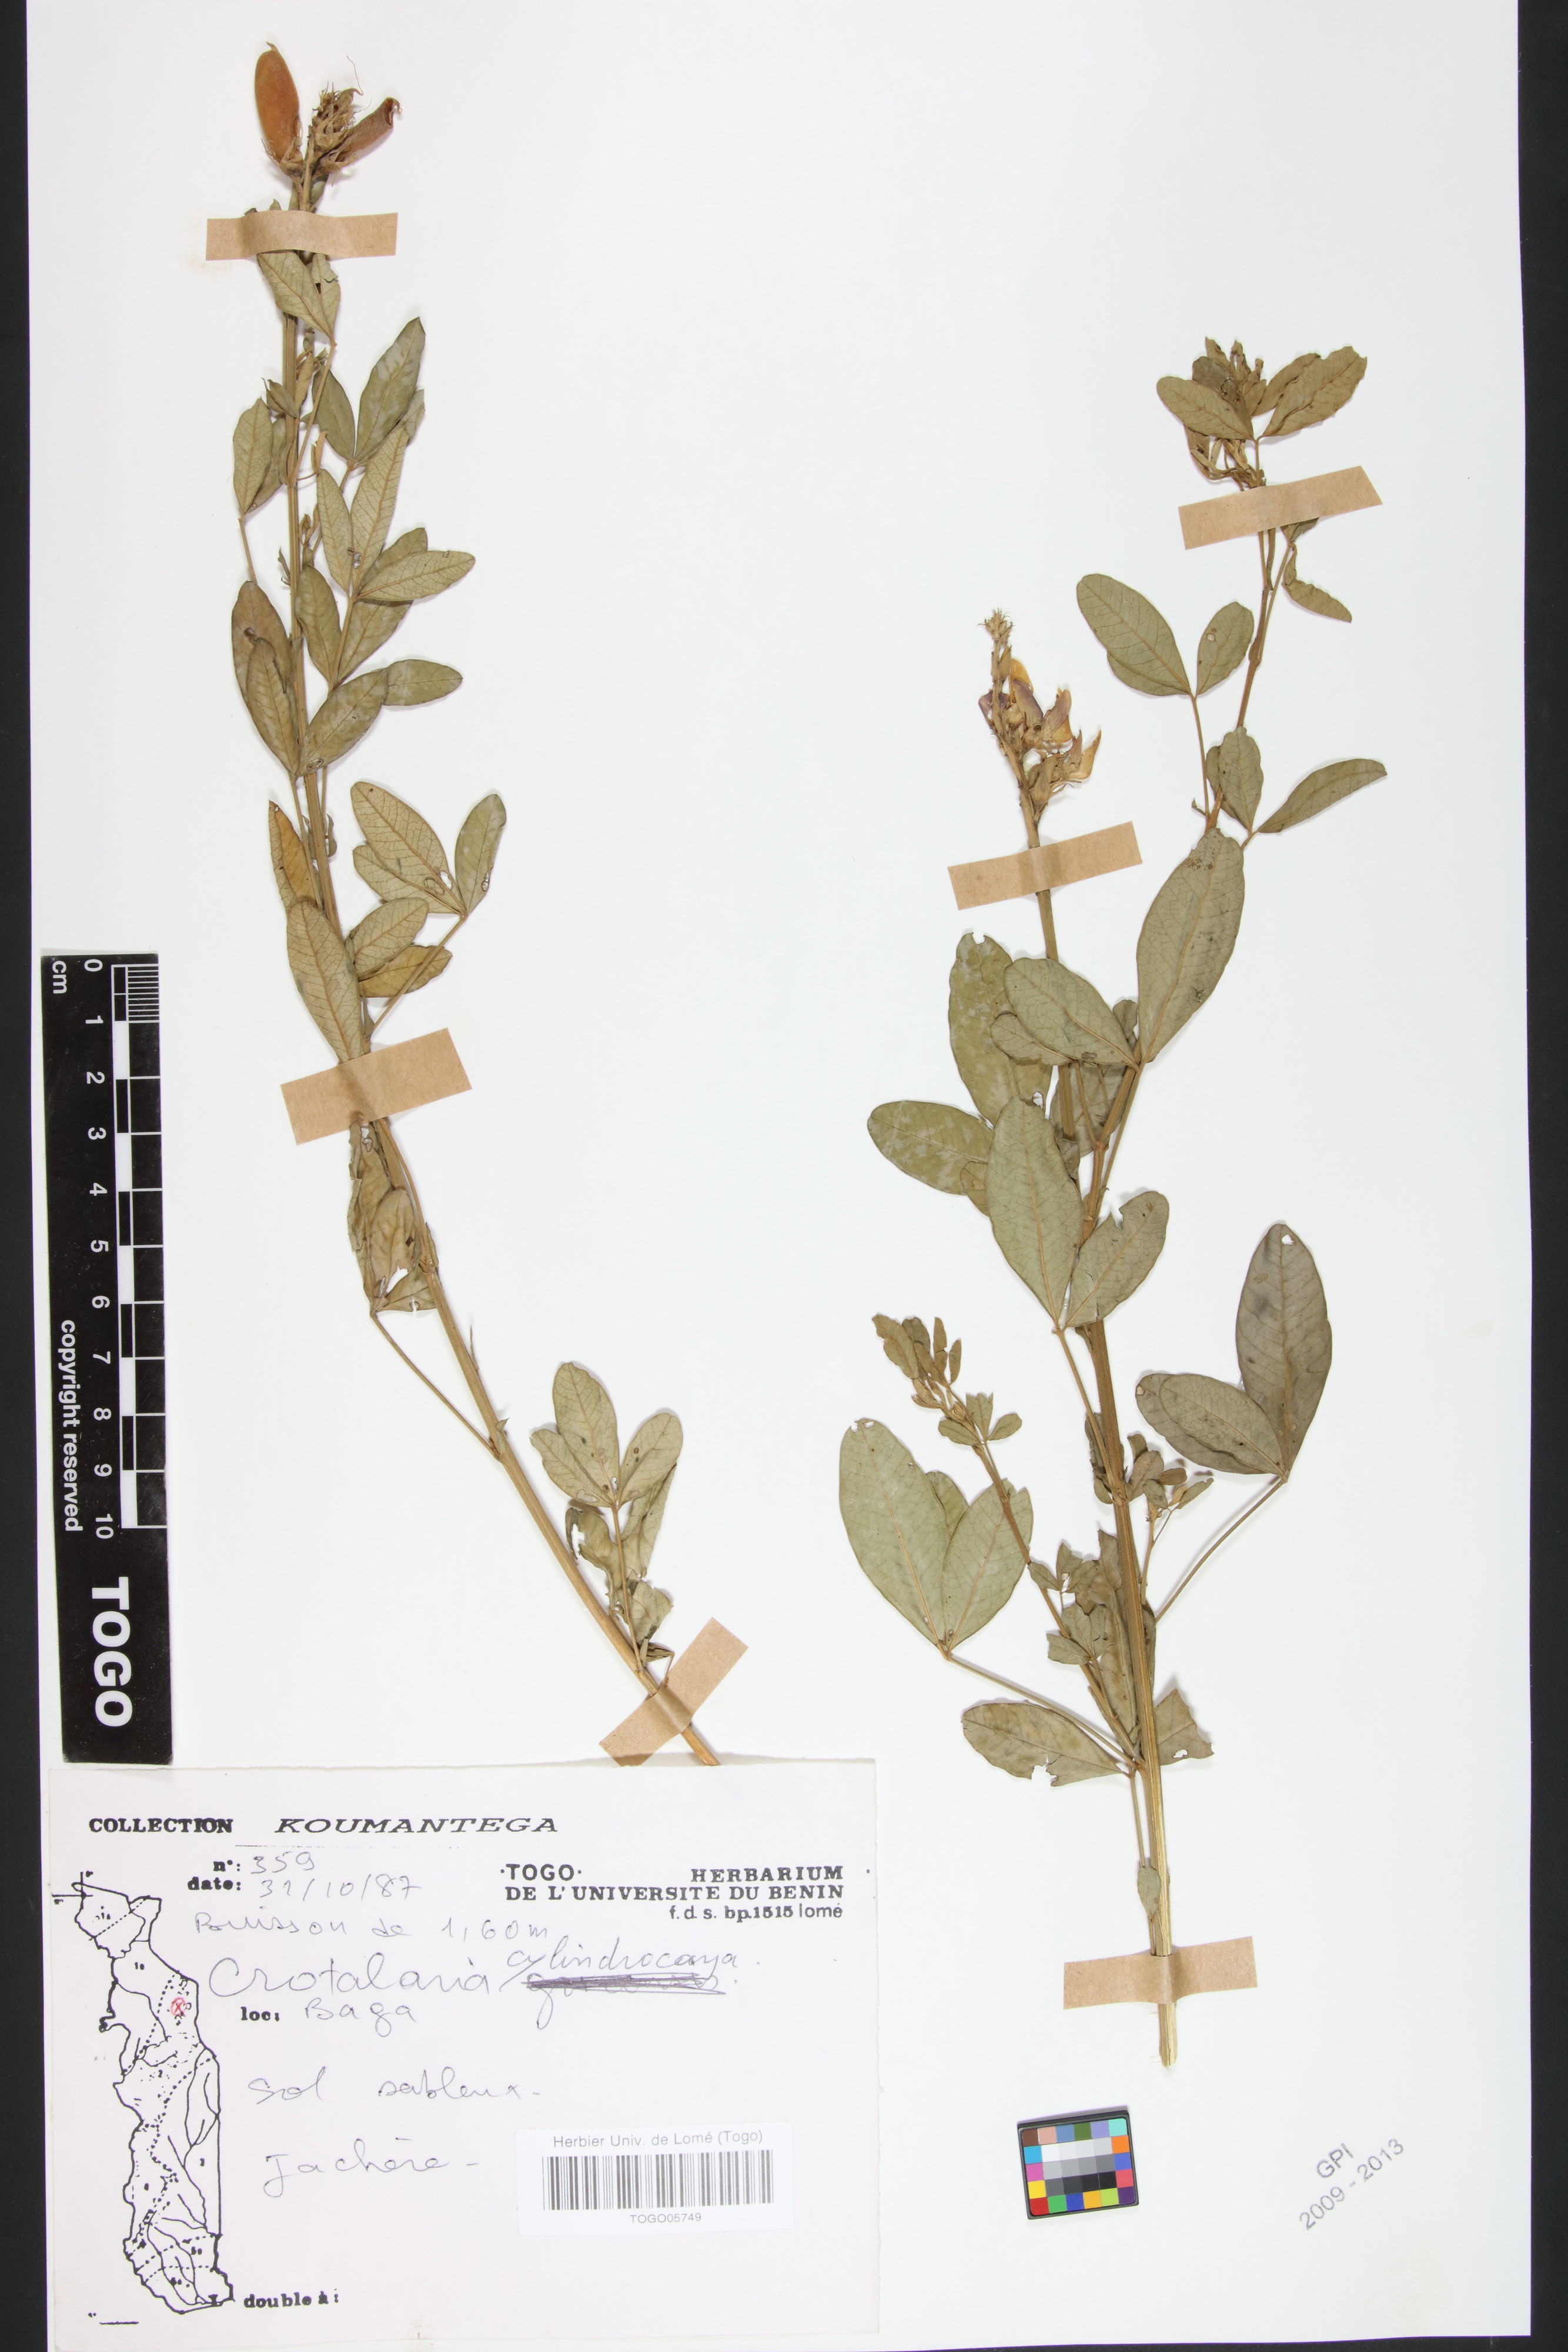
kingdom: Plantae
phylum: Tracheophyta
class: Magnoliopsida
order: Fabales
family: Fabaceae
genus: Crotalaria
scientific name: Crotalaria cylindrocarpa
